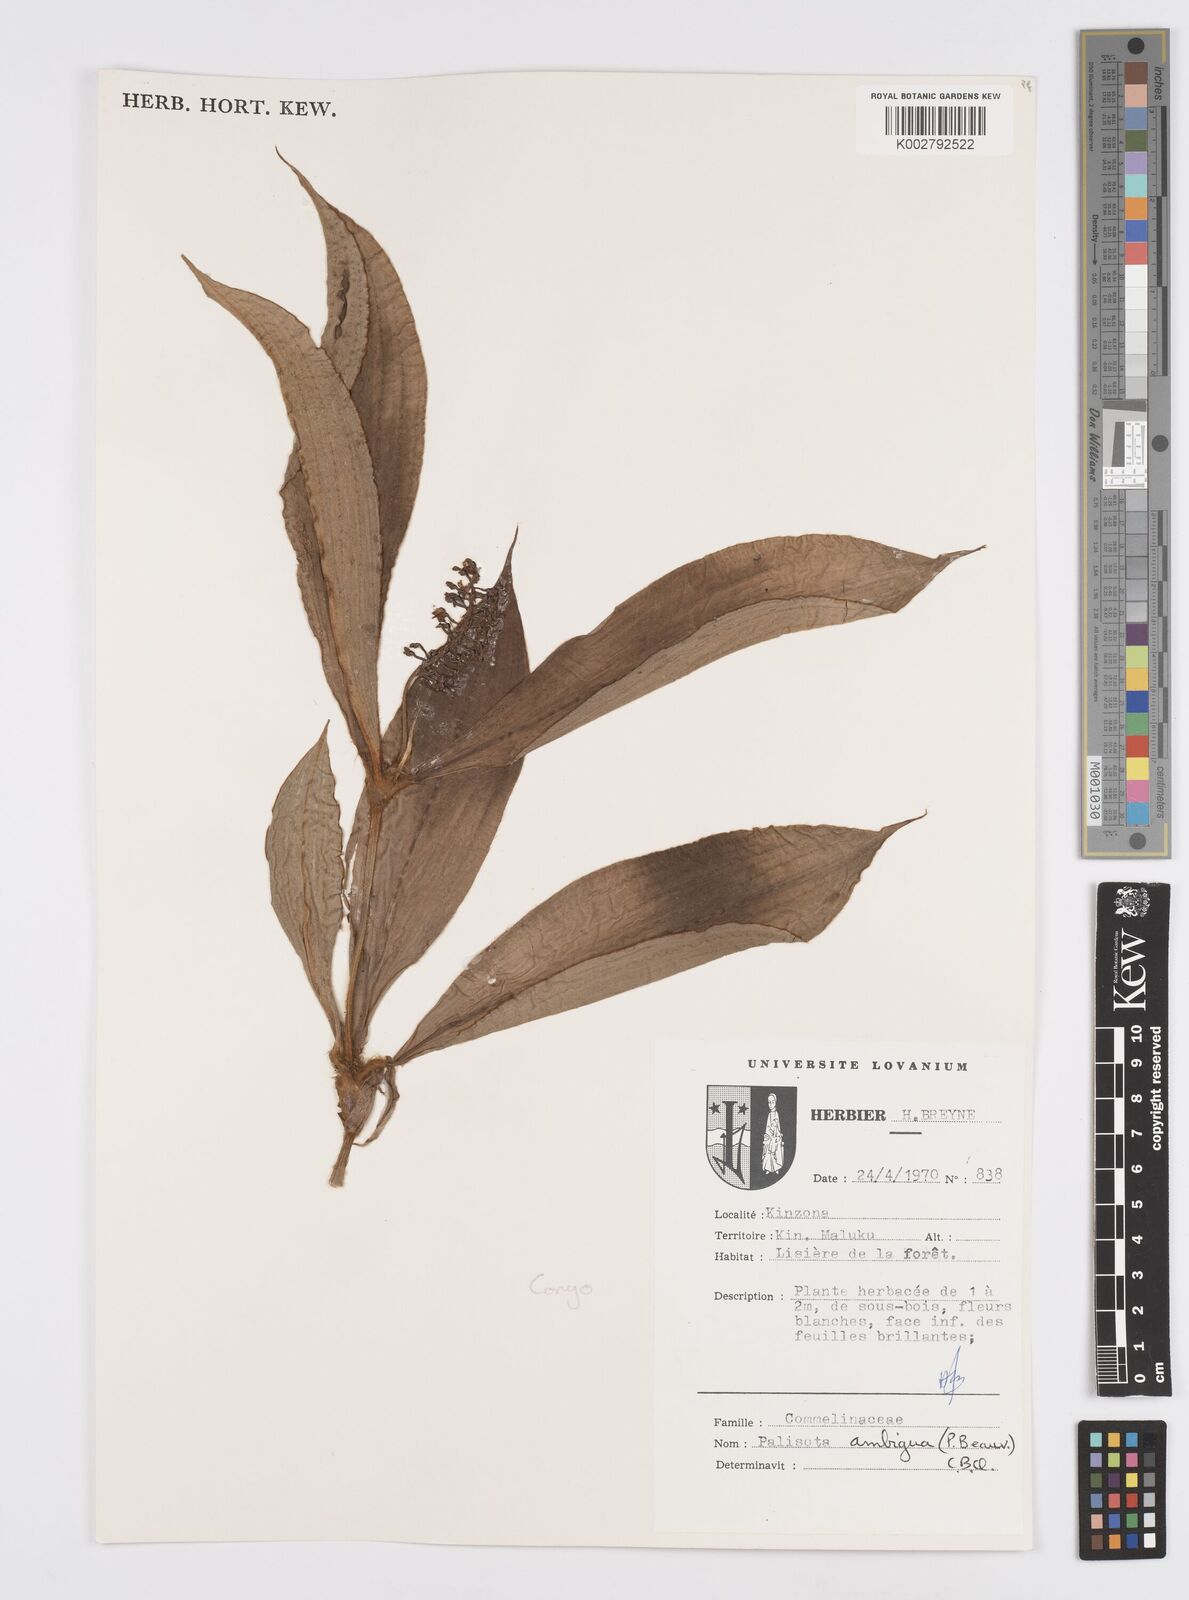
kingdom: Plantae
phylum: Tracheophyta
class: Liliopsida
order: Commelinales
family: Commelinaceae
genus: Palisota
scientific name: Palisota ambigua
